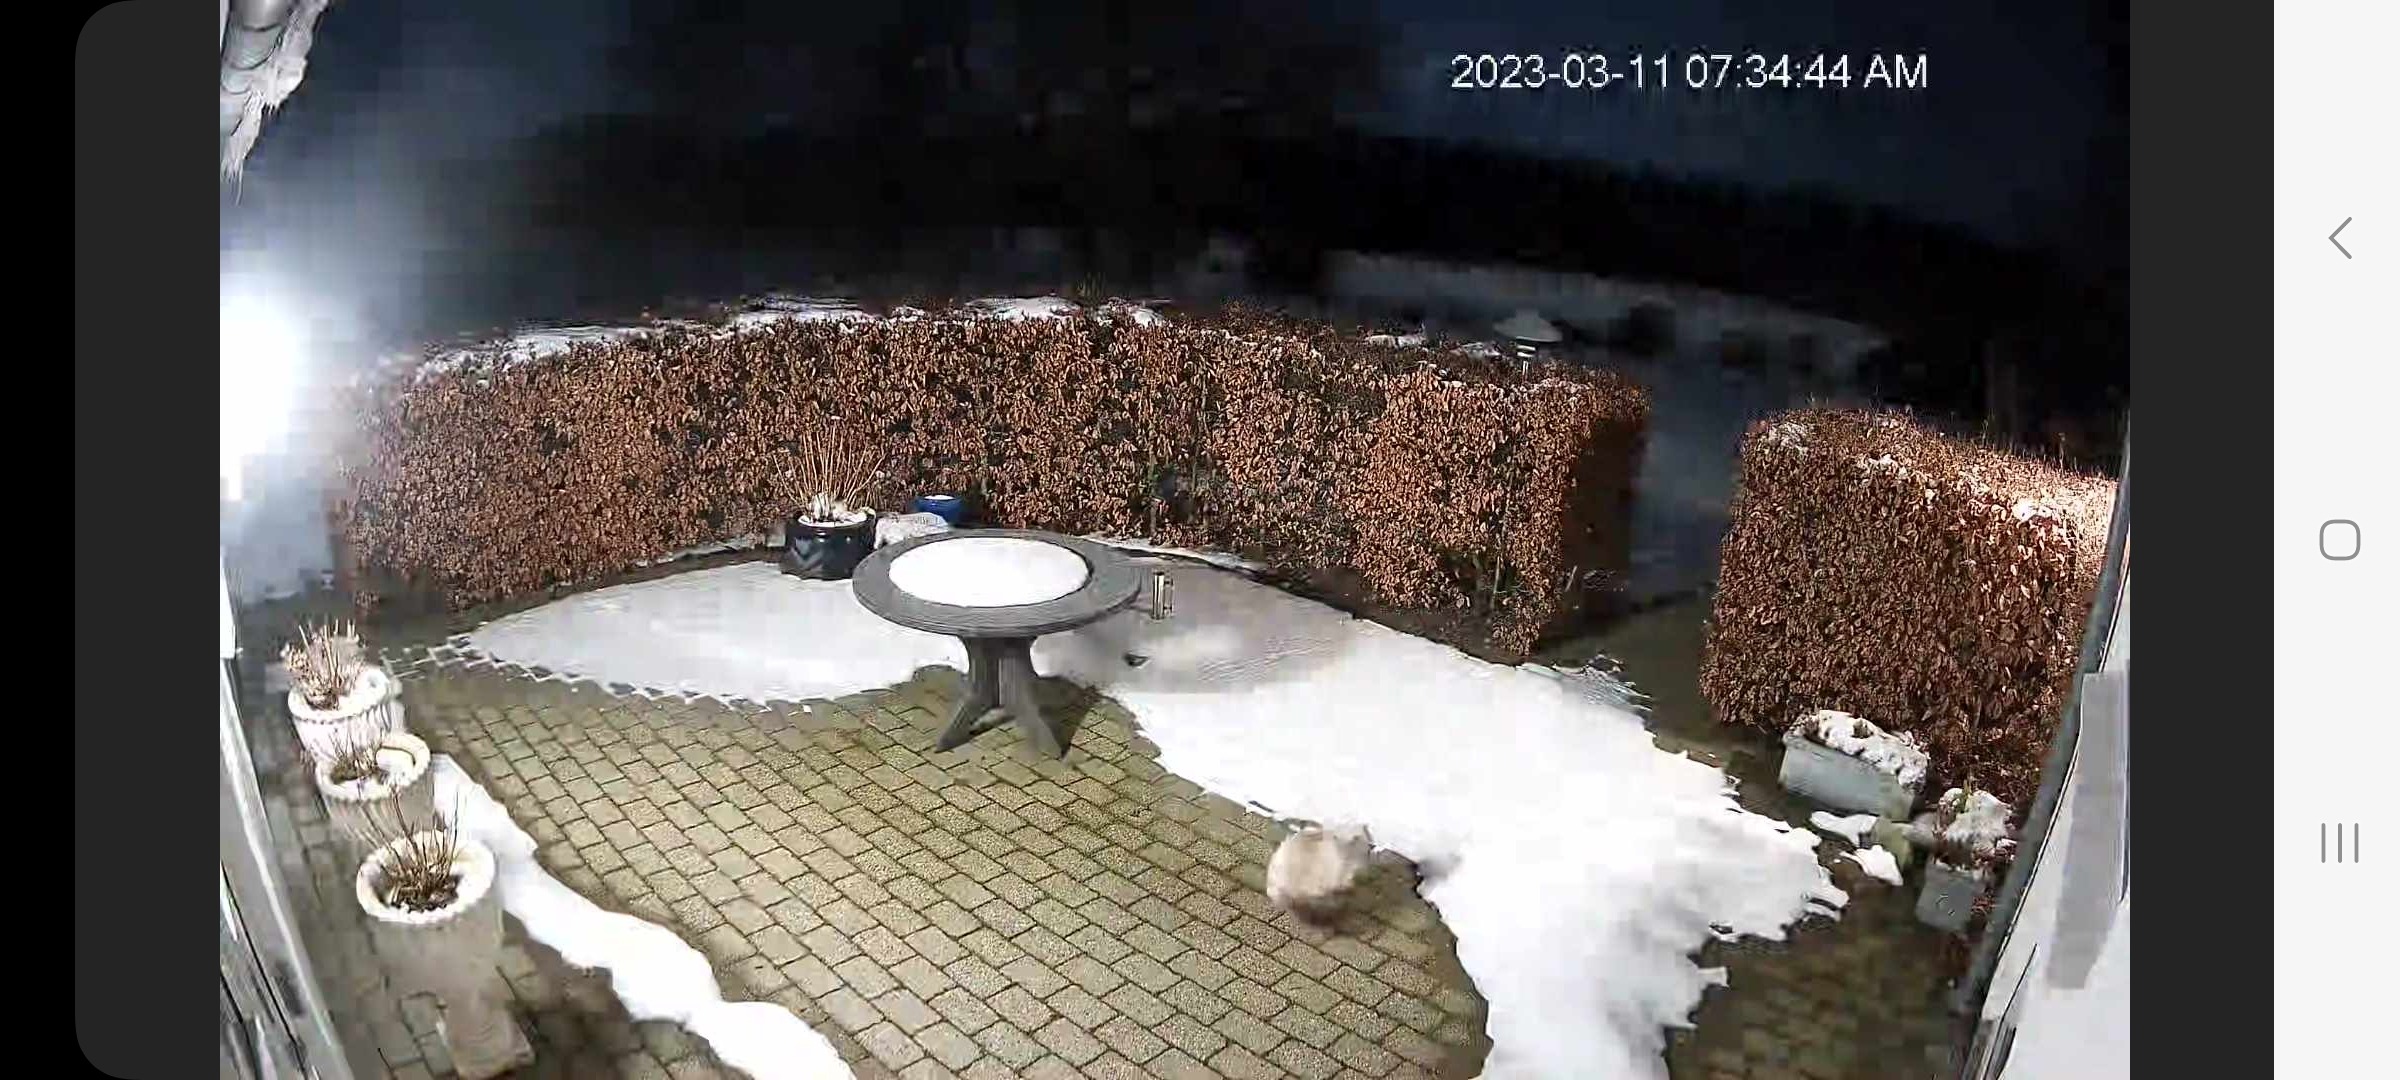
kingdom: Animalia
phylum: Chordata
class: Mammalia
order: Carnivora
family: Felidae
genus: Felis
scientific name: Felis catus
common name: Tamkat
